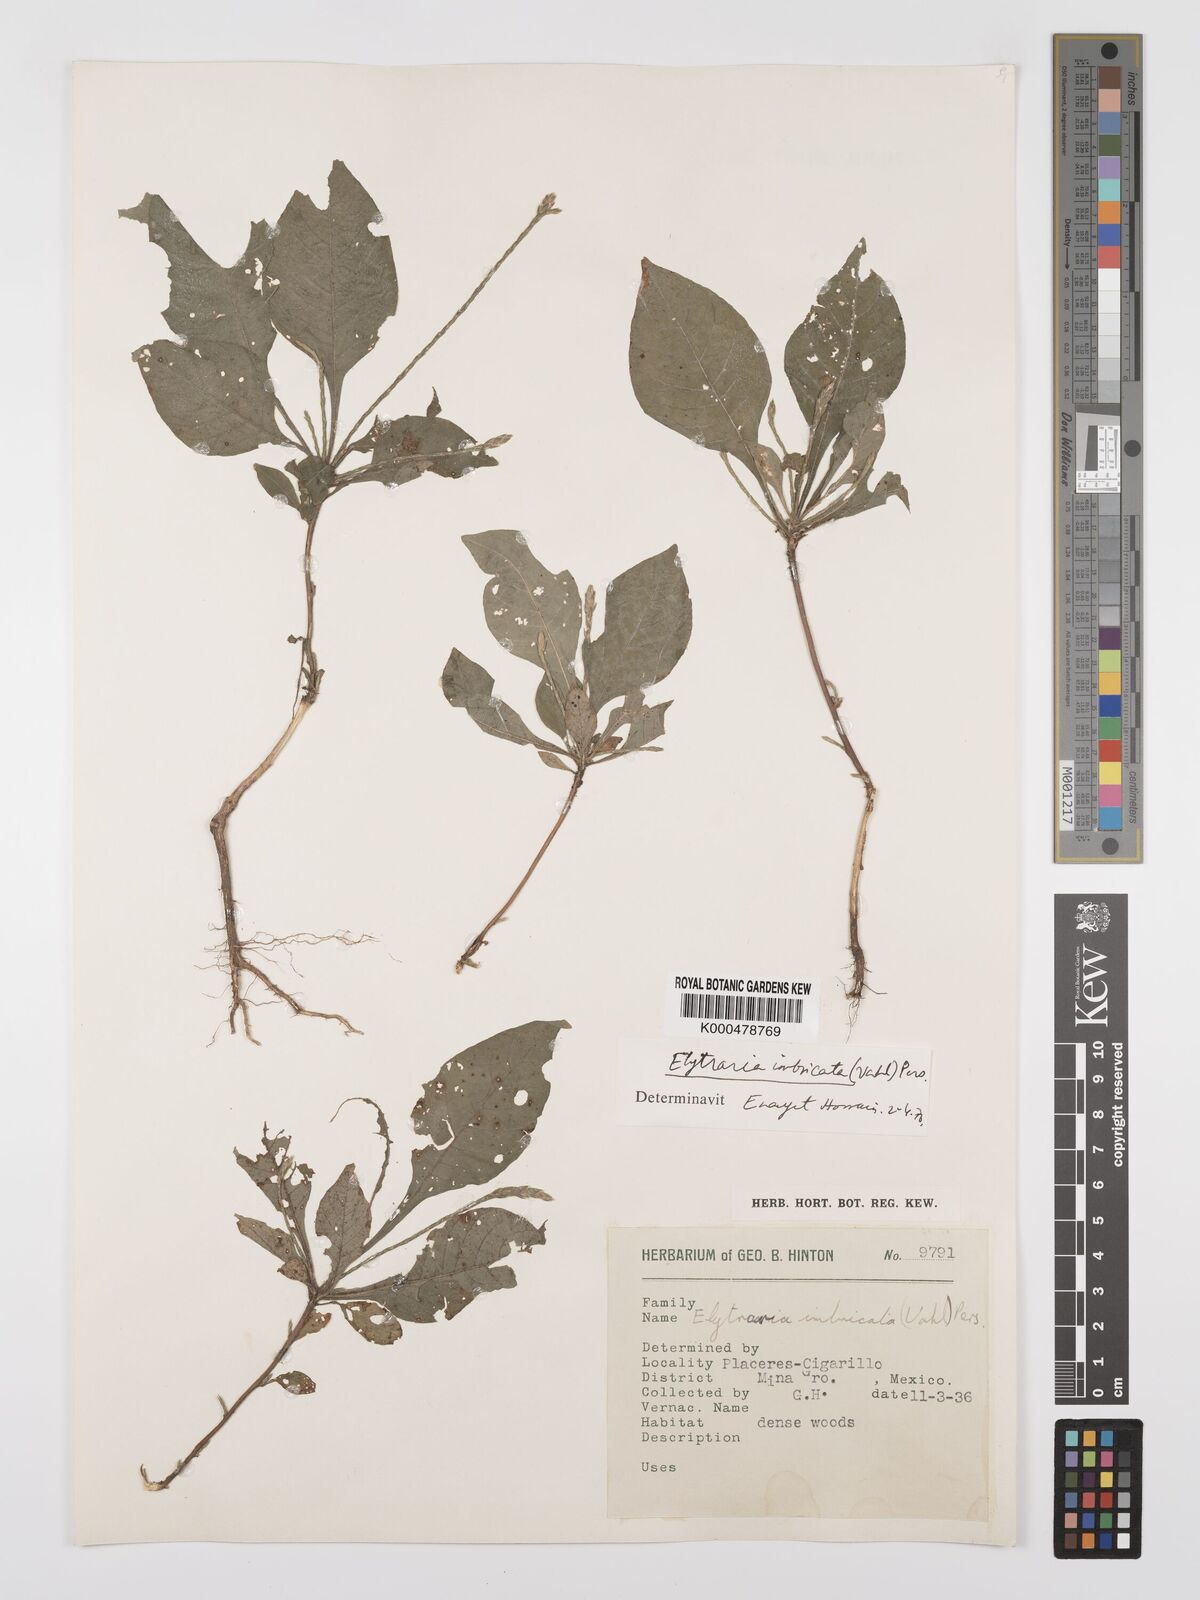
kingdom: Plantae
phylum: Tracheophyta
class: Magnoliopsida
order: Lamiales
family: Acanthaceae
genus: Elytraria
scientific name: Elytraria imbricata
